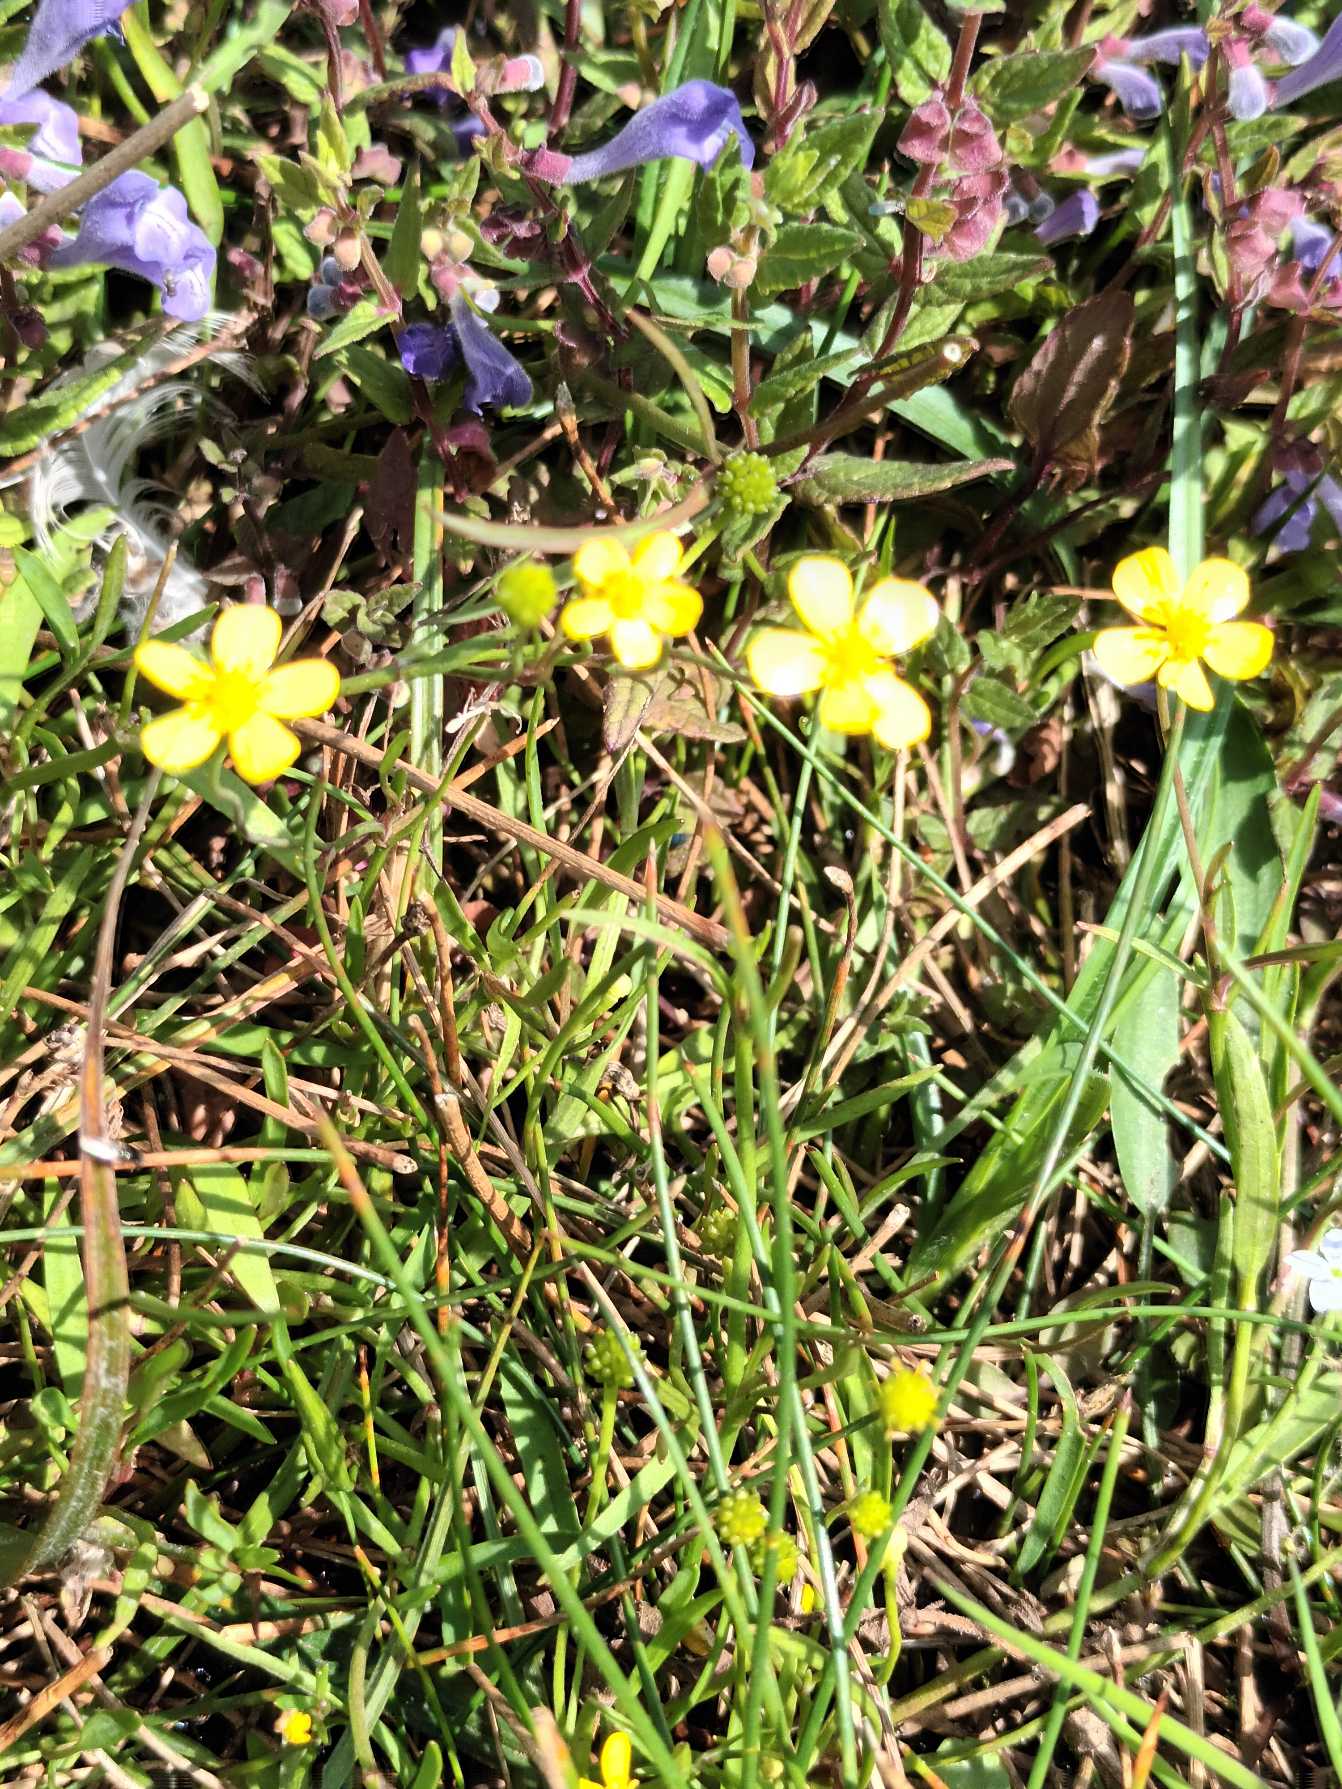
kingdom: Plantae
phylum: Tracheophyta
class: Magnoliopsida
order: Ranunculales
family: Ranunculaceae
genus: Ranunculus
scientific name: Ranunculus flammula
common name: Kær-ranunkel
